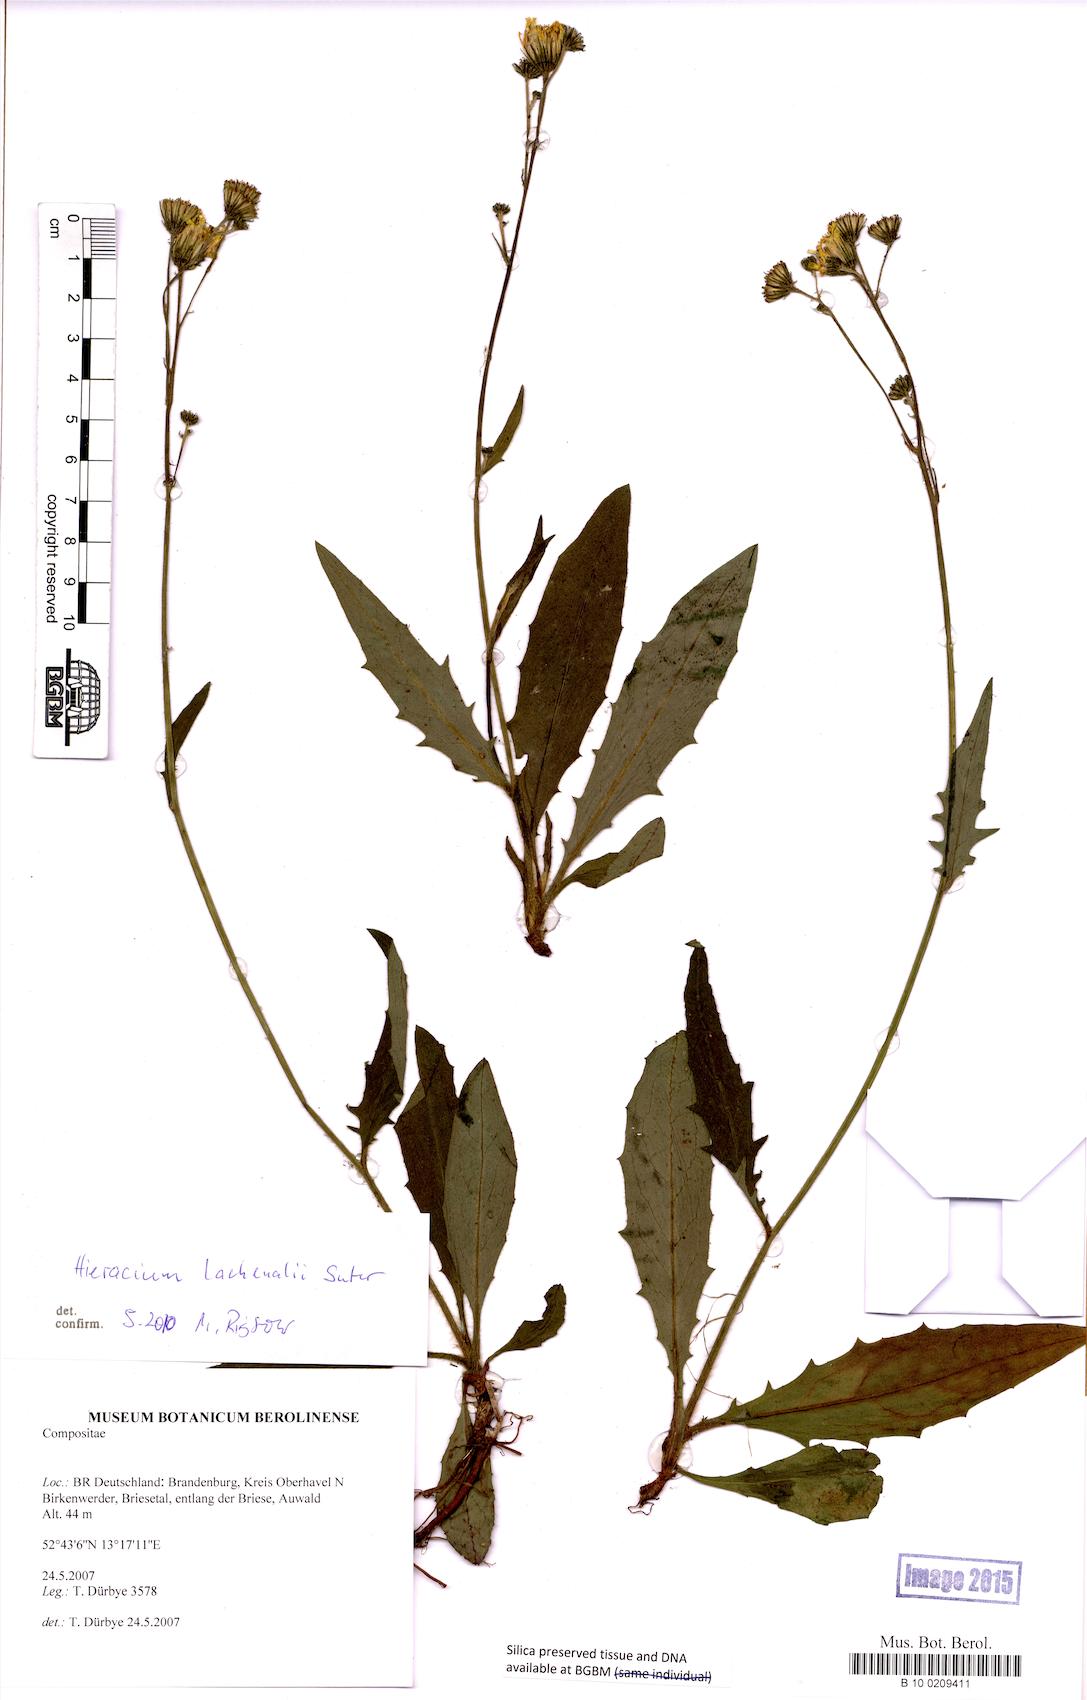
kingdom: Plantae
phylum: Tracheophyta
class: Magnoliopsida
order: Asterales
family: Asteraceae
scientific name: Asteraceae
